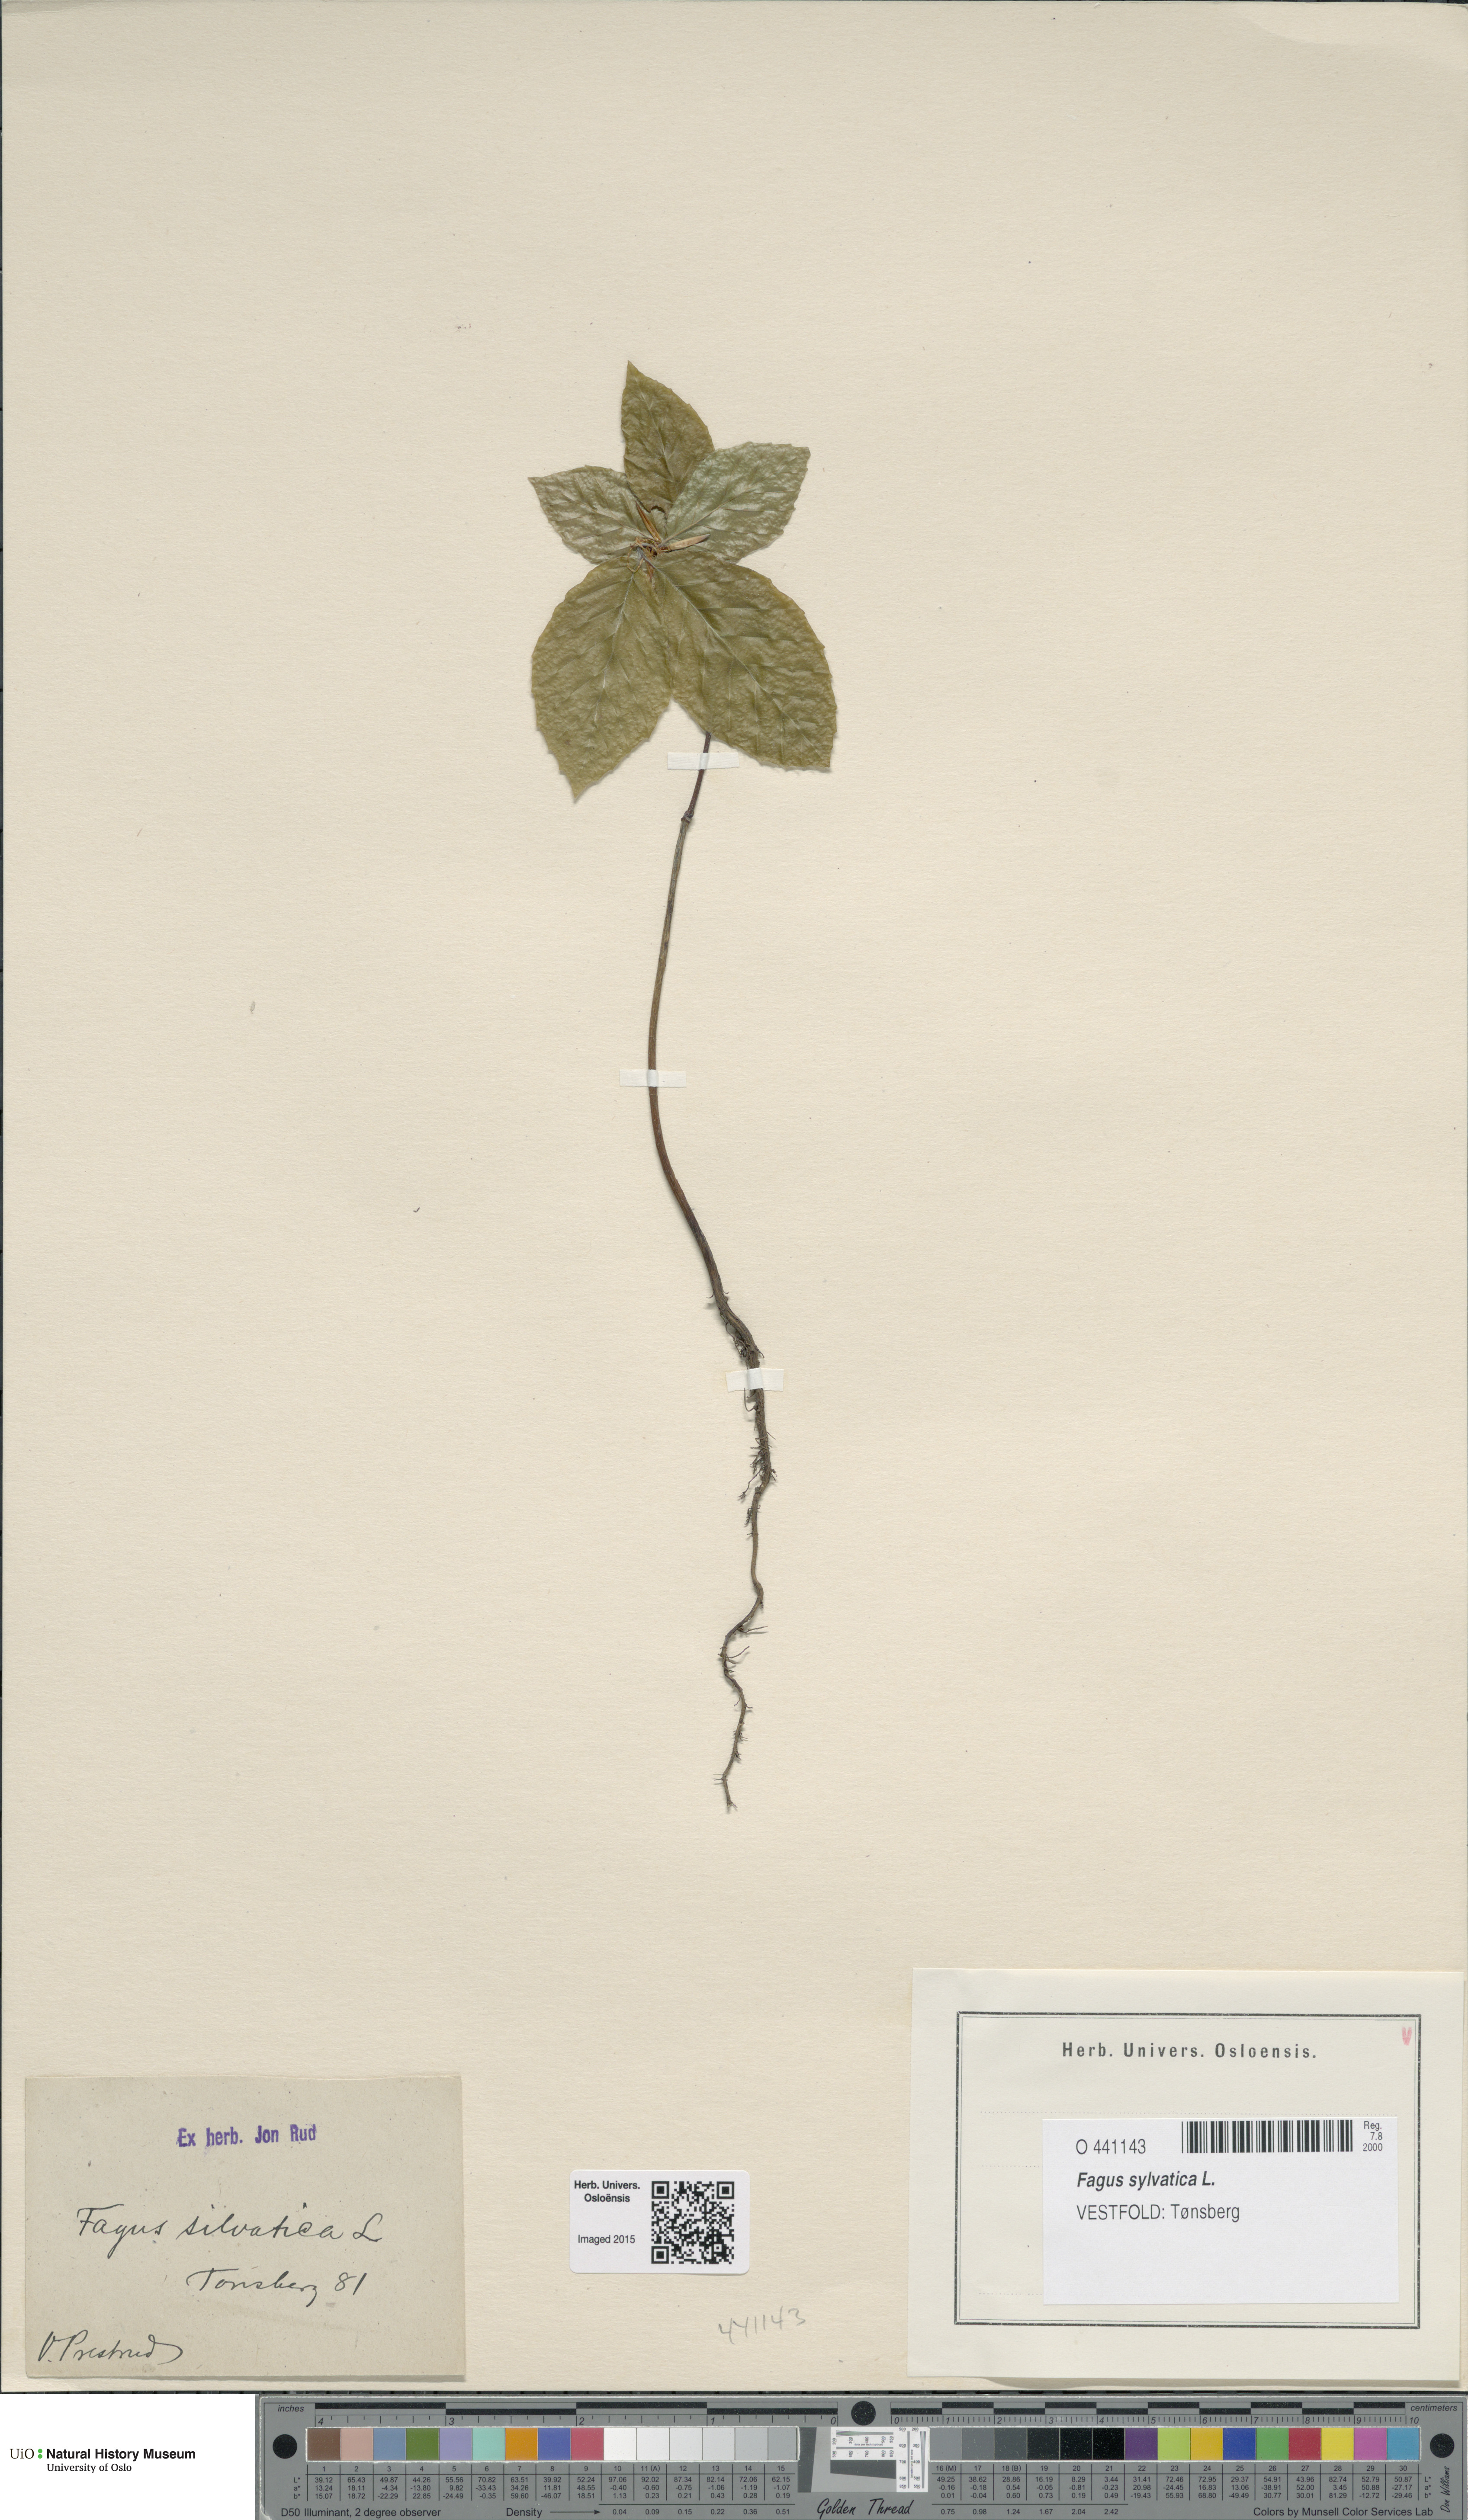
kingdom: Plantae
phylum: Tracheophyta
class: Magnoliopsida
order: Fagales
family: Fagaceae
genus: Fagus
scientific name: Fagus sylvatica
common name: Beech
